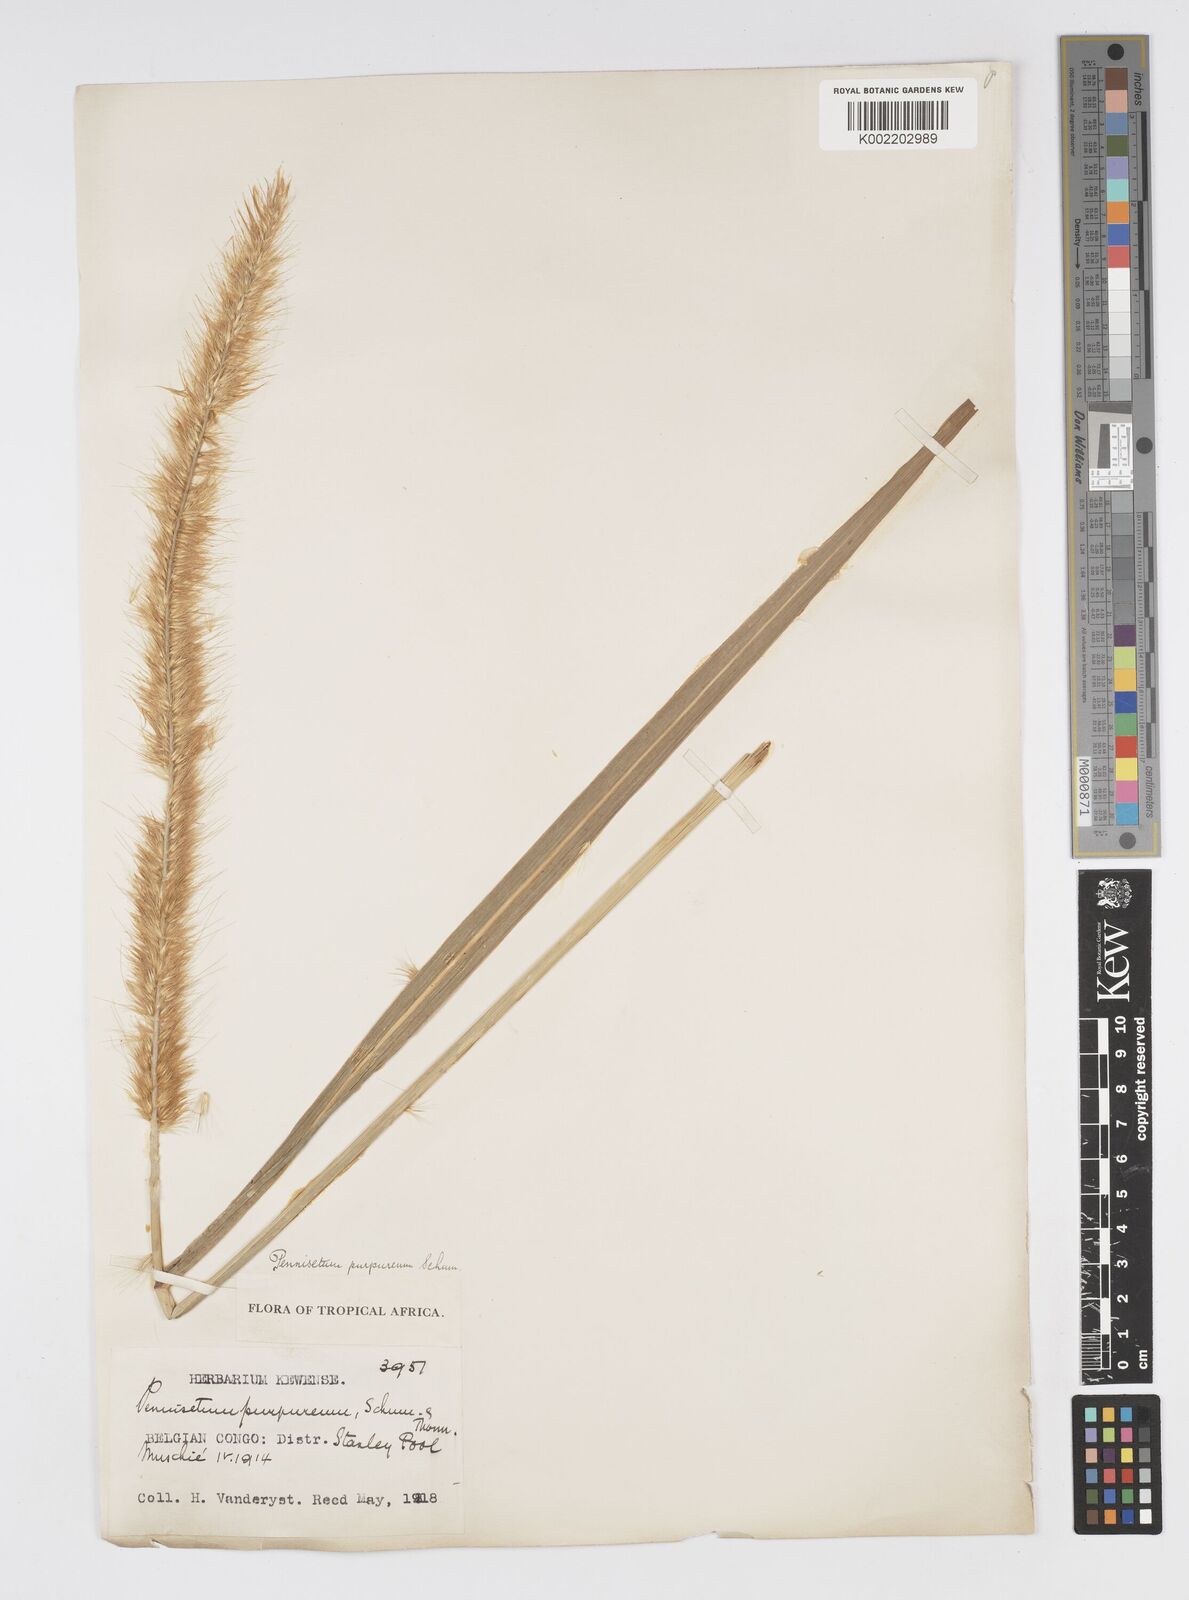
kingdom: Plantae
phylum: Tracheophyta
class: Liliopsida
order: Poales
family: Poaceae
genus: Cenchrus
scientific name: Cenchrus purpureus
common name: Elephant grass
